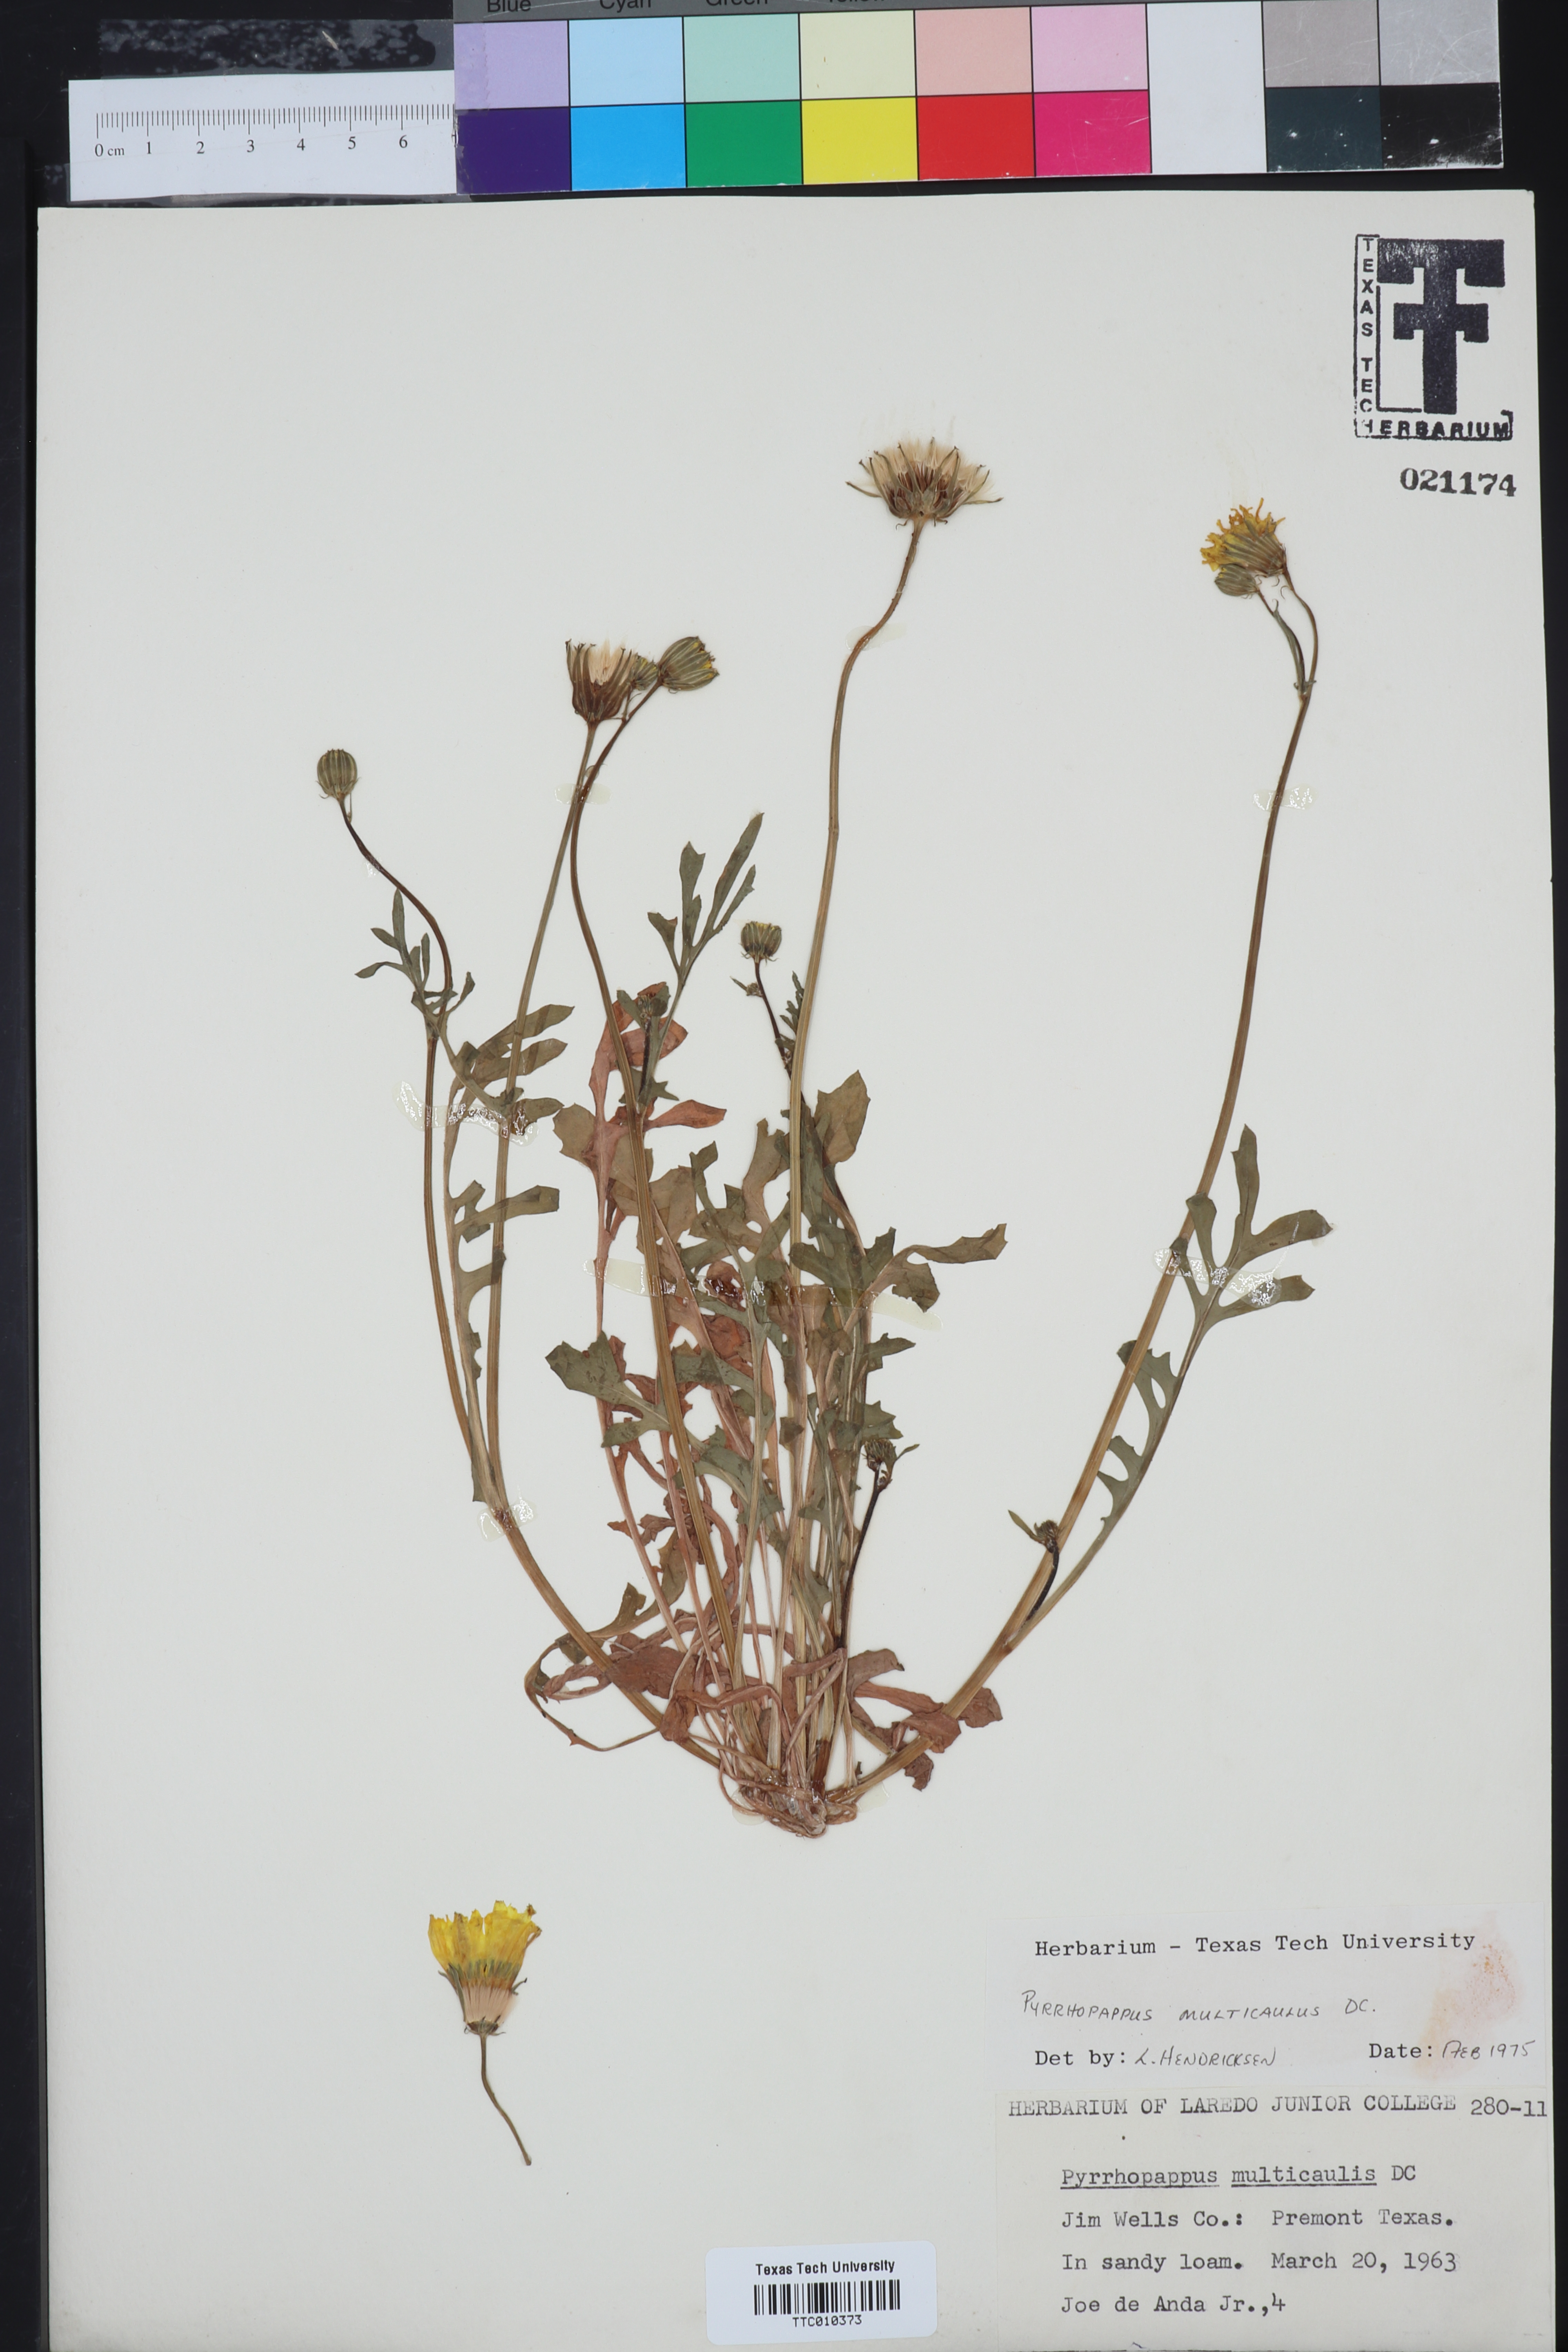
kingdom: Plantae
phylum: Tracheophyta
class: Magnoliopsida
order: Asterales
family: Asteraceae
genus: Pyrrhopappus
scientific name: Pyrrhopappus pauciflorus
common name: Texas false dandelion
